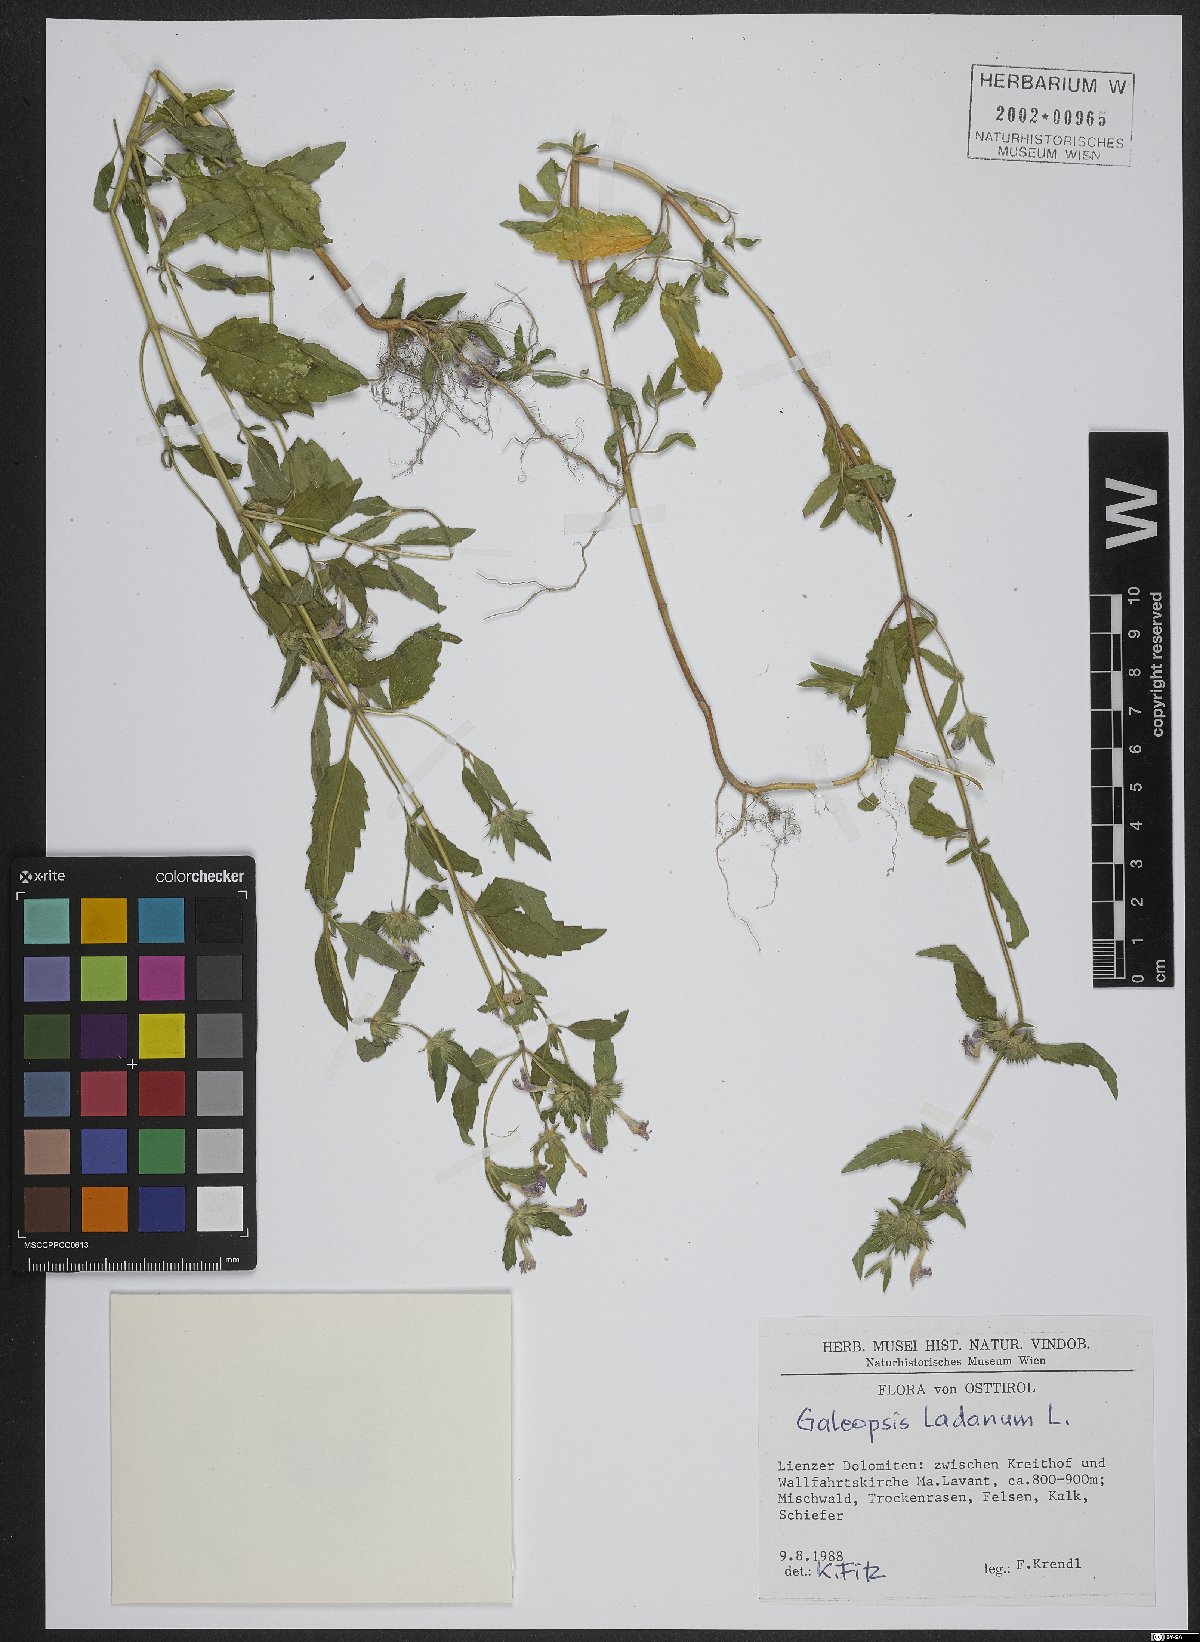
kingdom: Plantae
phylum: Tracheophyta
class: Magnoliopsida
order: Lamiales
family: Lamiaceae
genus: Galeopsis
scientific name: Galeopsis ladanum
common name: Broad-leaved hemp-nettle
